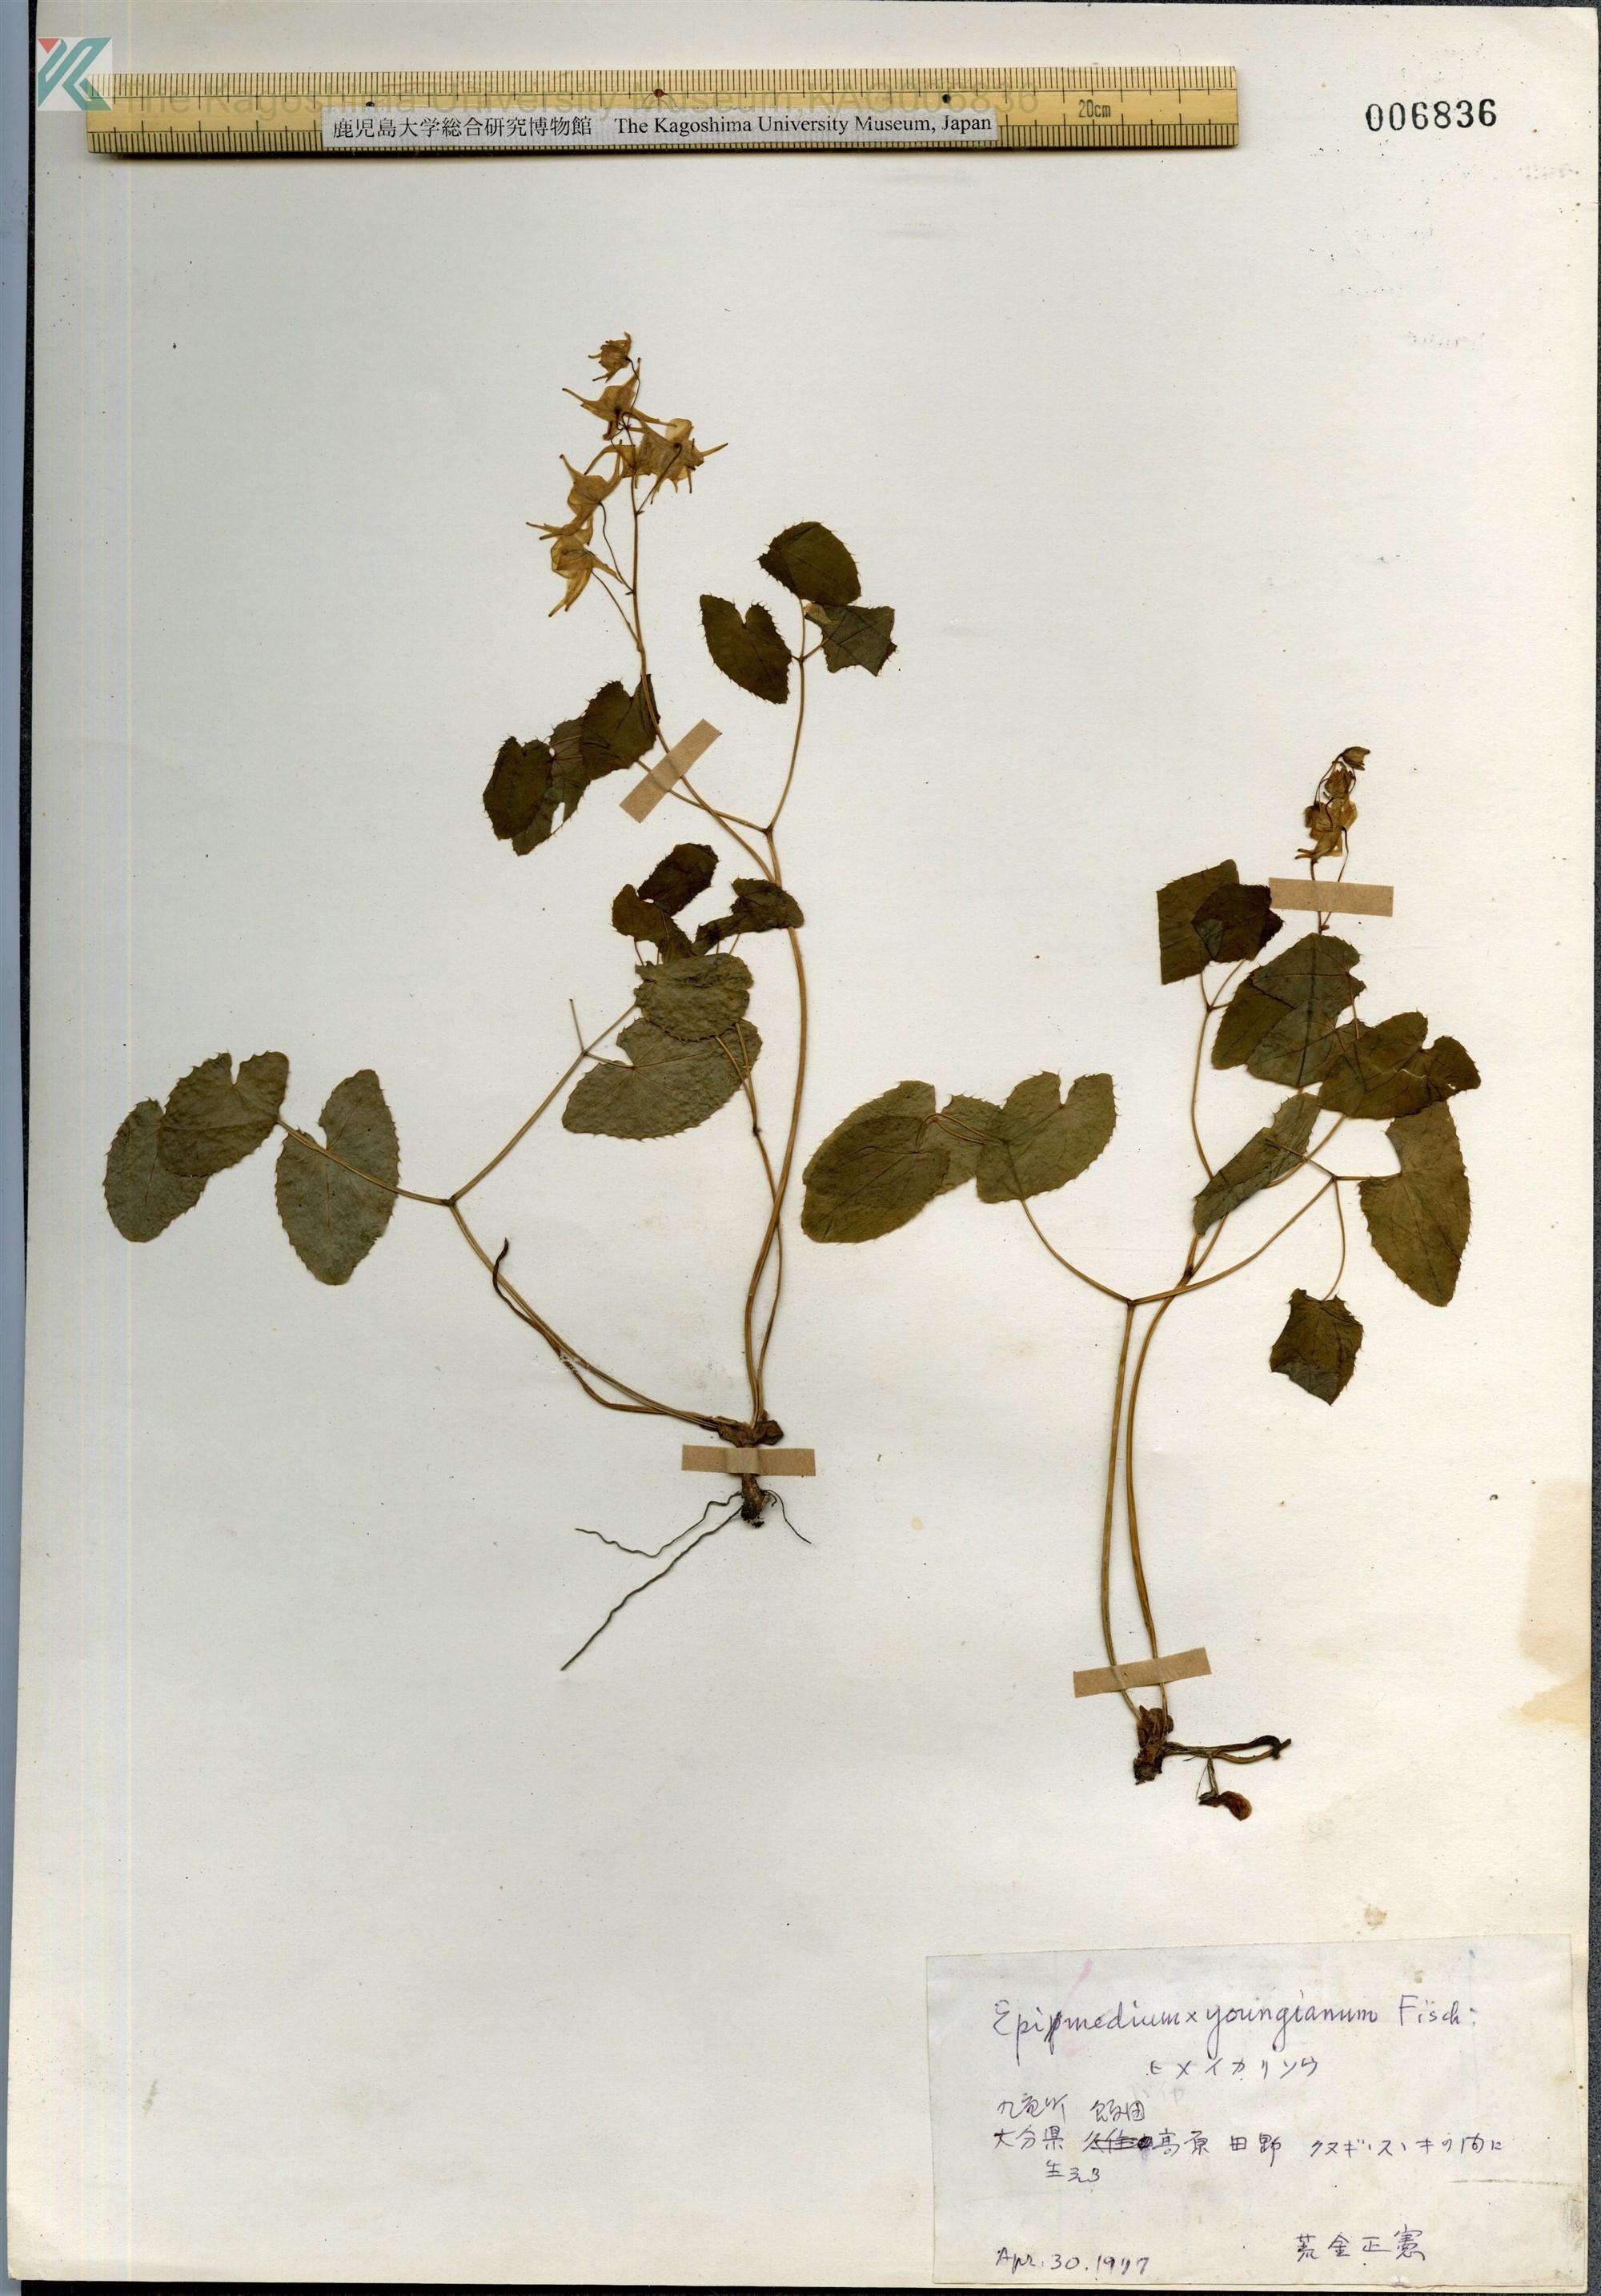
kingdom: Plantae
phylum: Tracheophyta
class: Magnoliopsida
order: Ranunculales
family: Berberidaceae
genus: Epimedium
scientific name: Epimedium youngianum
